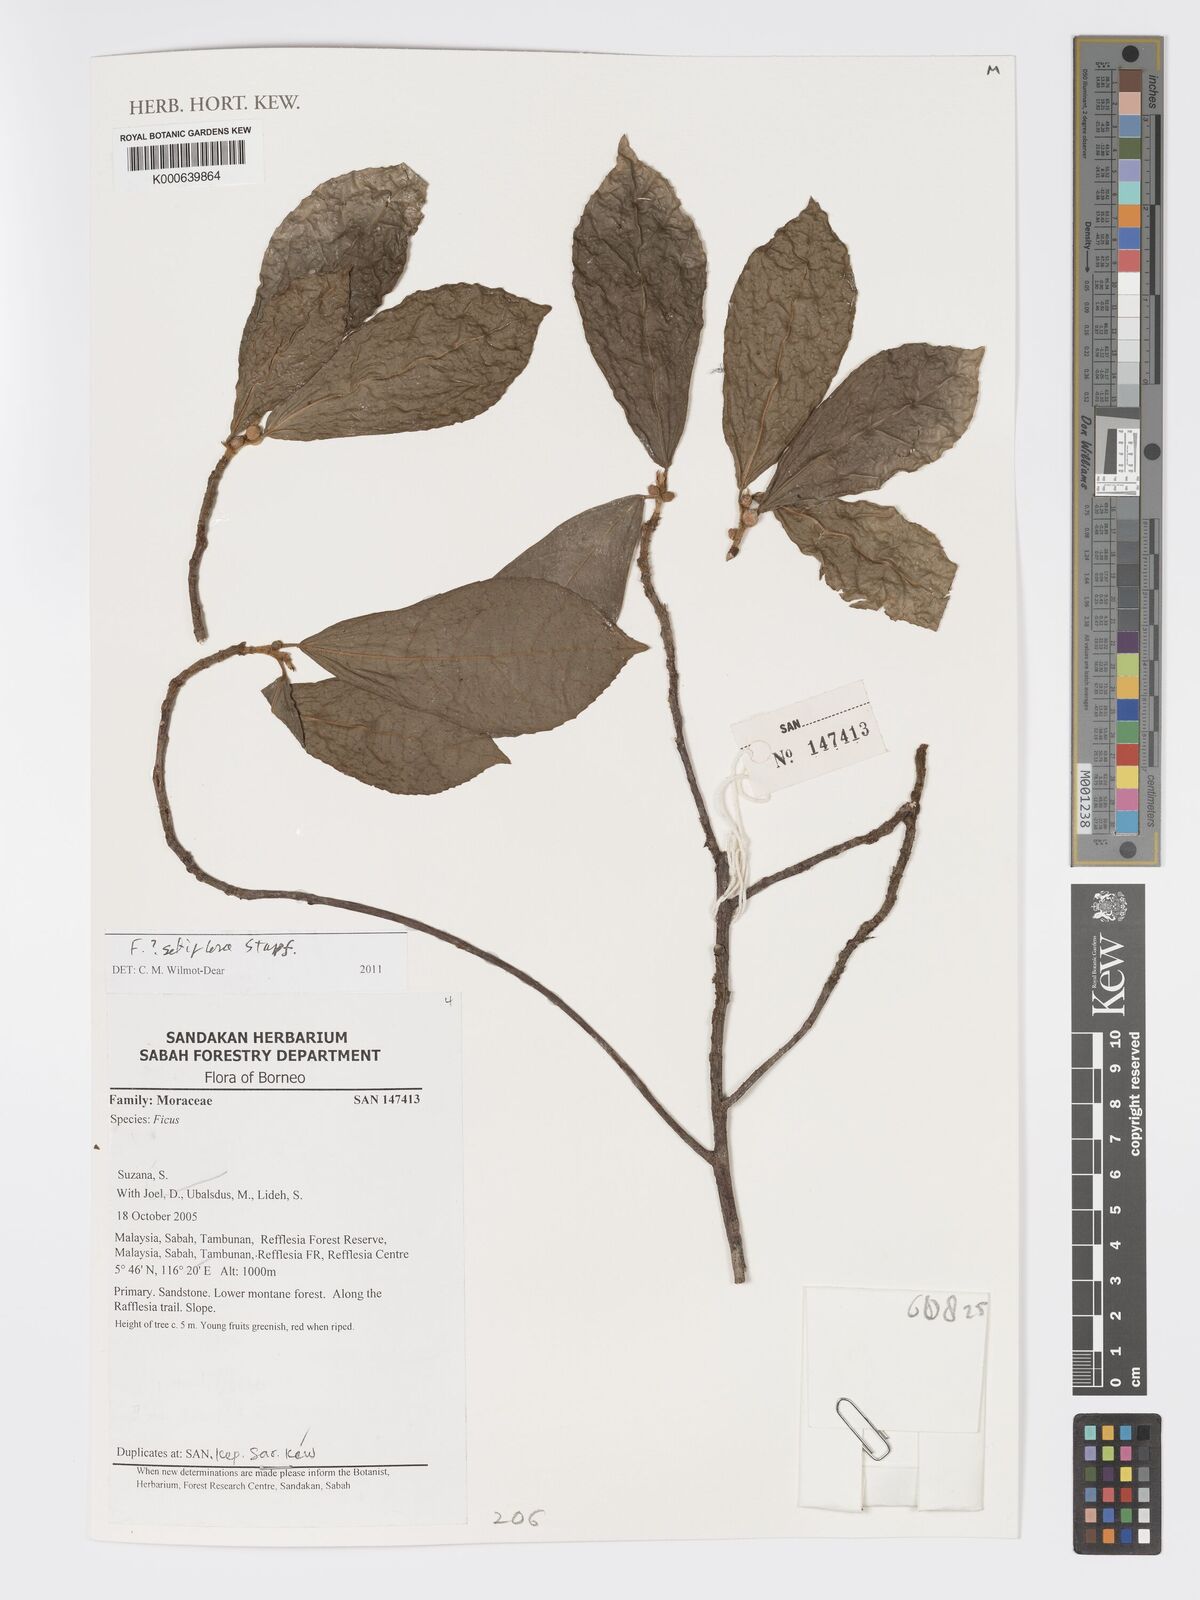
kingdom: Plantae
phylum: Tracheophyta
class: Magnoliopsida
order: Rosales
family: Moraceae
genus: Ficus
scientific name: Ficus
